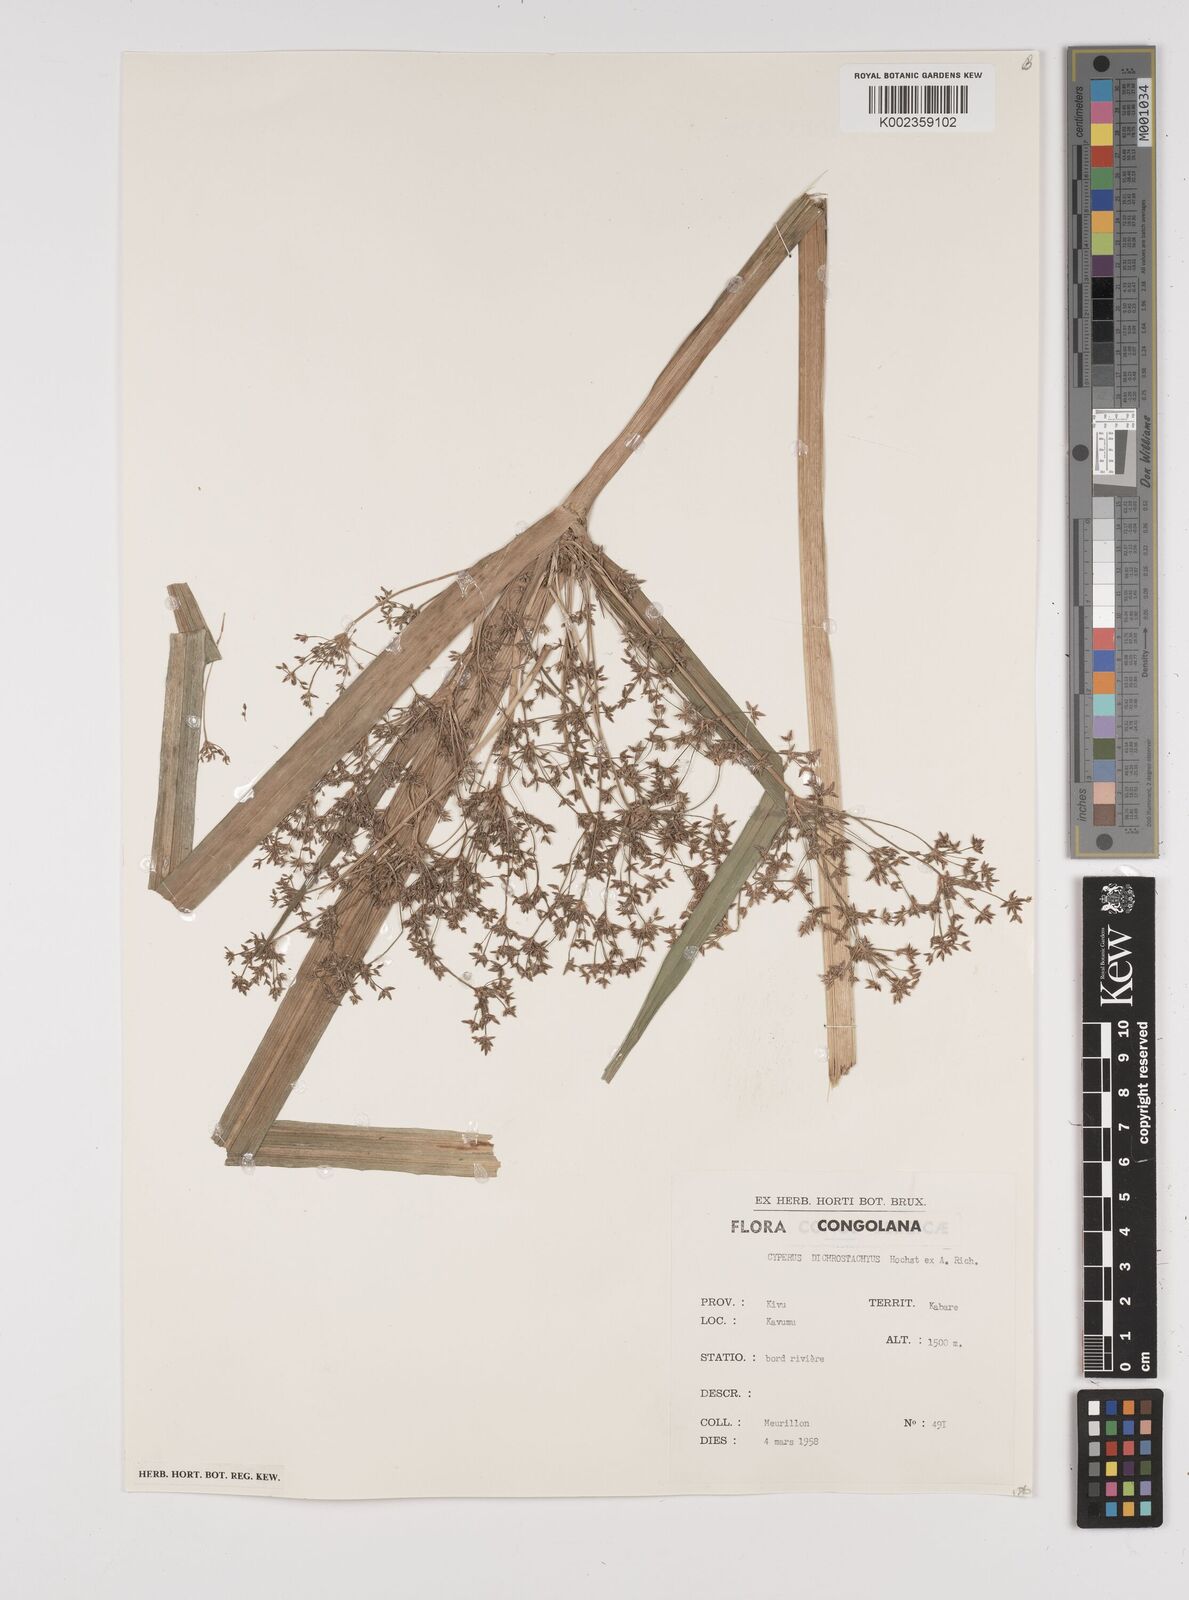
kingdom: Plantae
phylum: Tracheophyta
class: Liliopsida
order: Poales
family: Cyperaceae
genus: Cyperus
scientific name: Cyperus dichrostachyus
